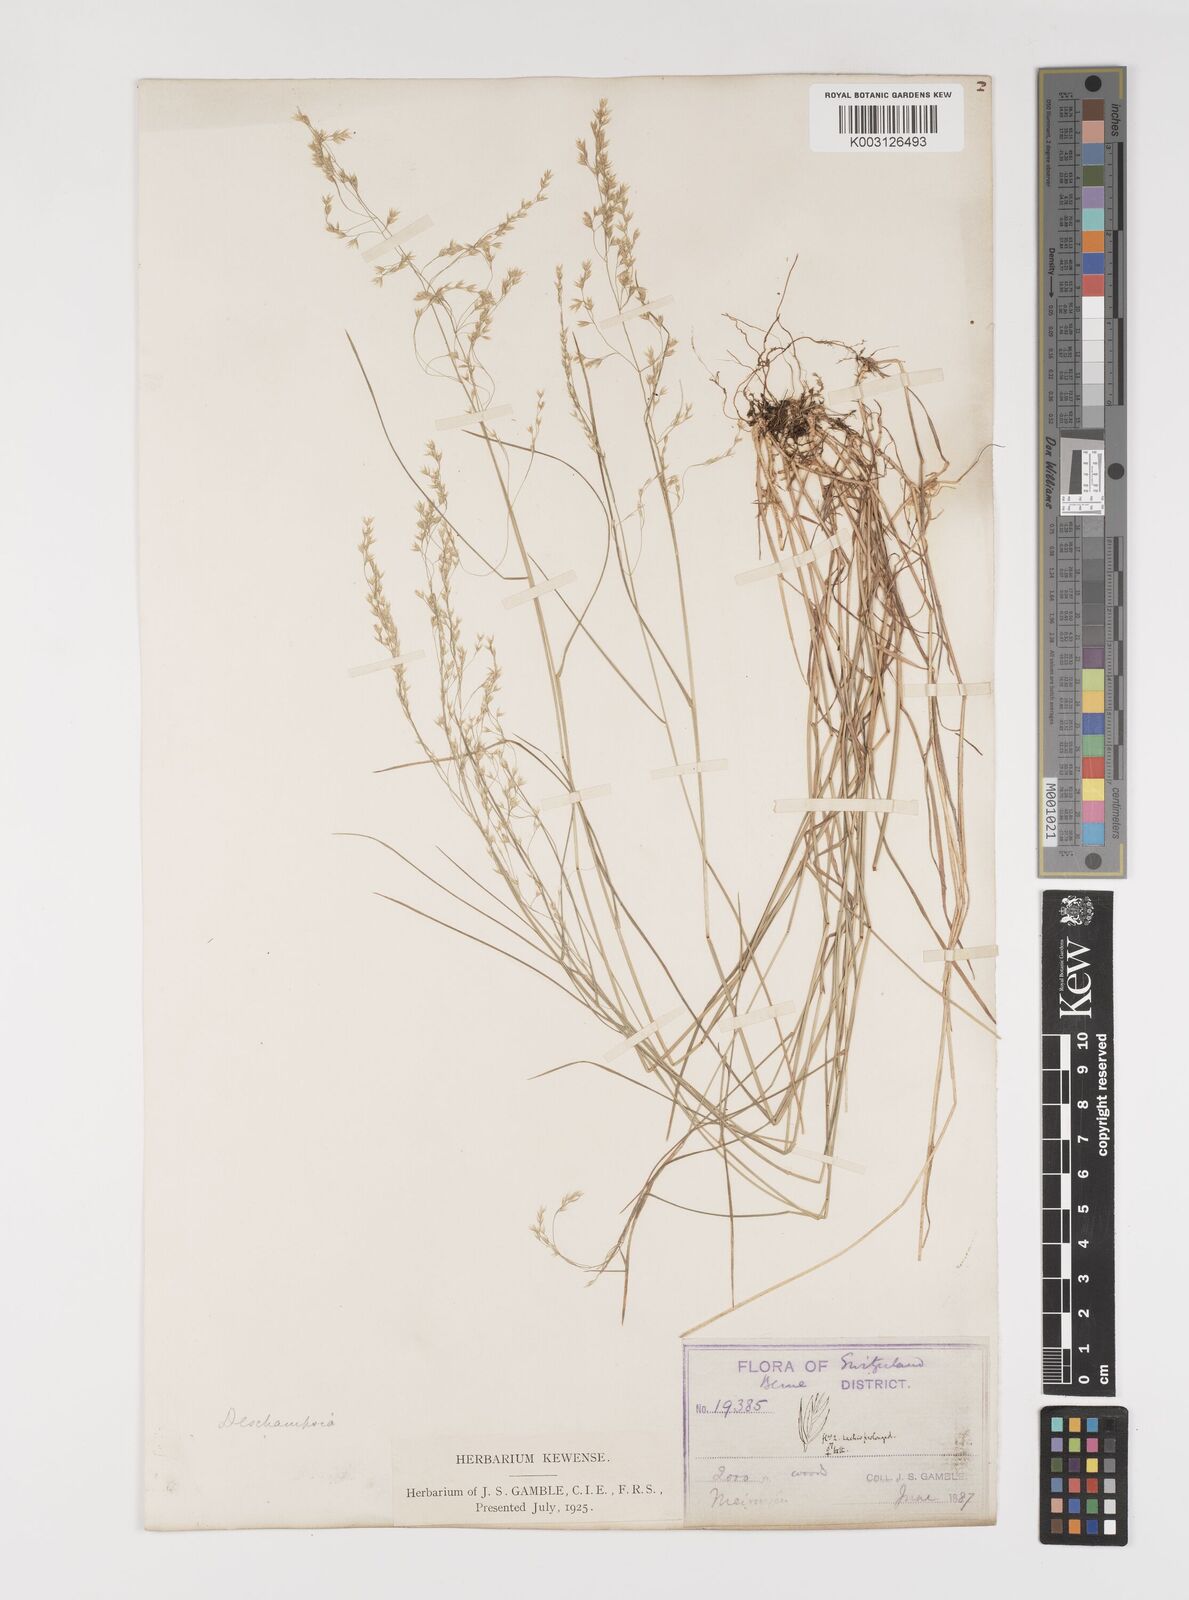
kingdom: Plantae
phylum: Tracheophyta
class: Liliopsida
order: Poales
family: Poaceae
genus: Poa
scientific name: Poa nemoralis
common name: Wood bluegrass
